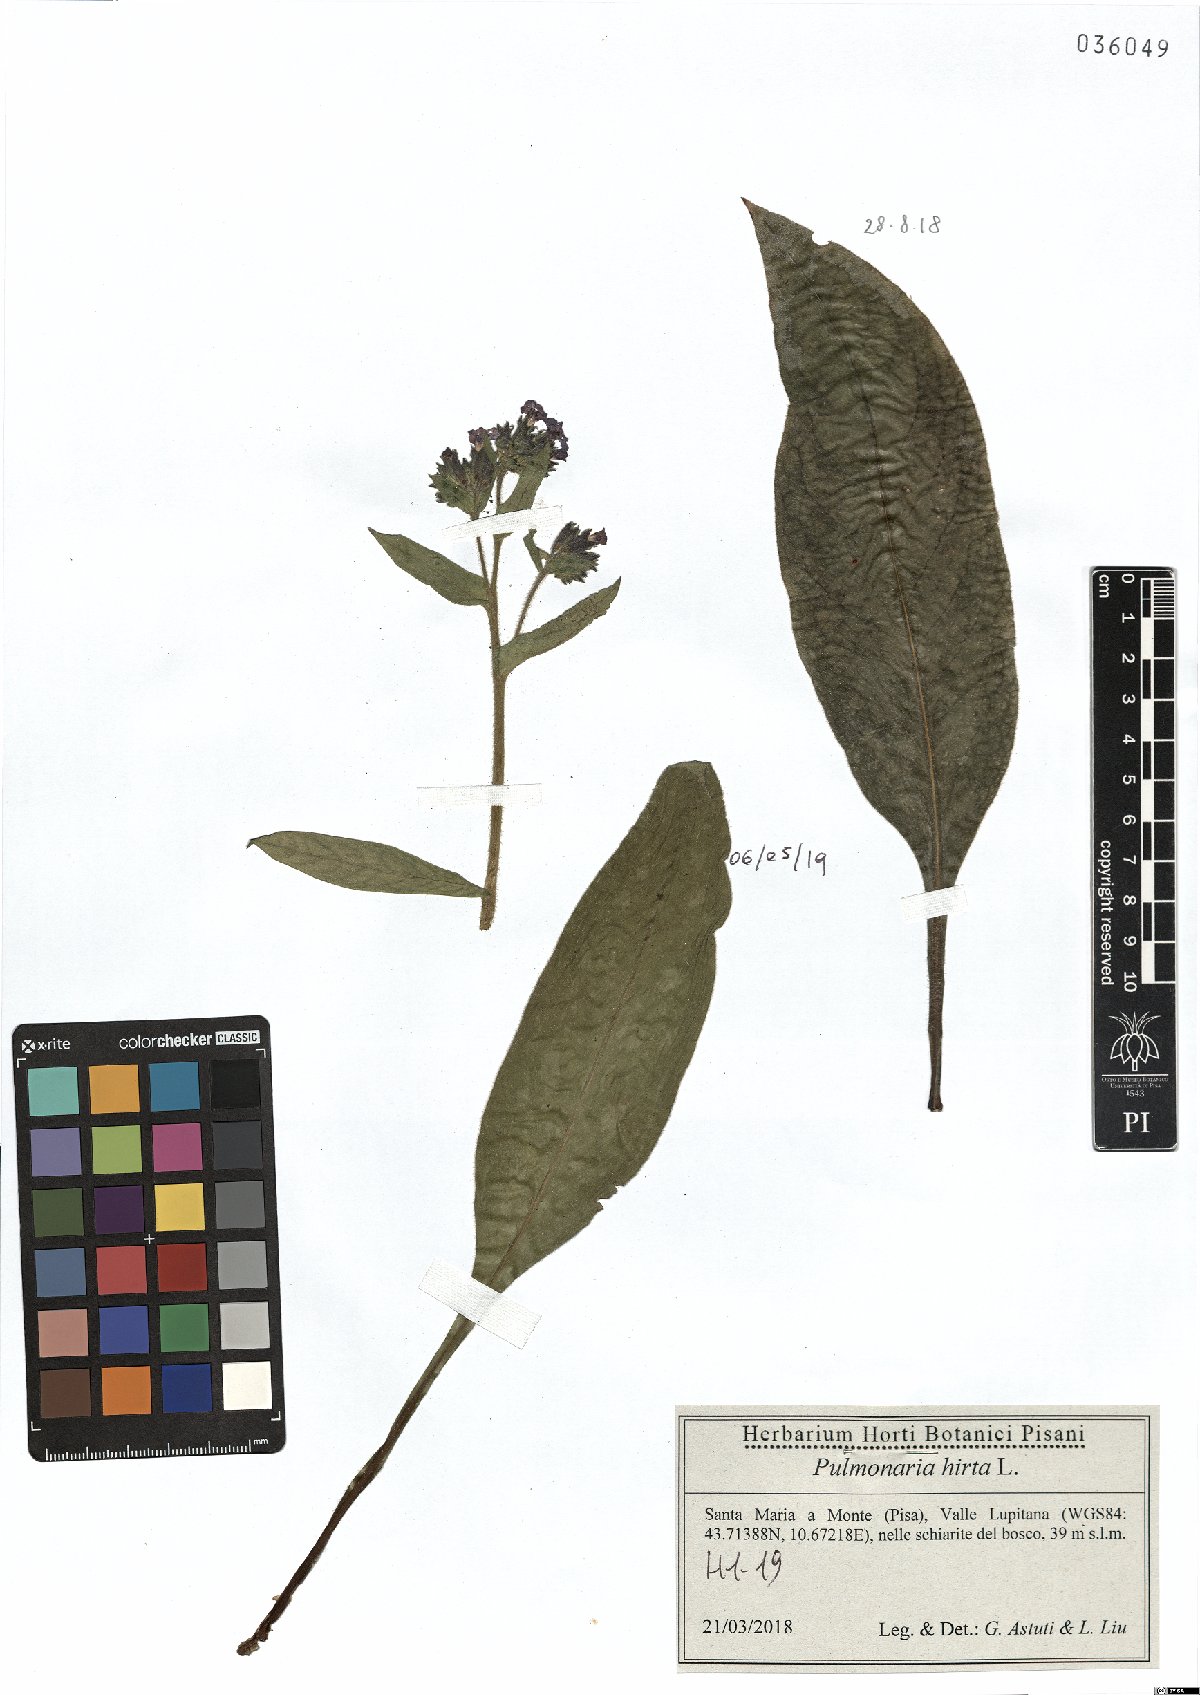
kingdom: Plantae
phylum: Tracheophyta
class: Magnoliopsida
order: Boraginales
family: Boraginaceae
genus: Pulmonaria
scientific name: Pulmonaria hirta
